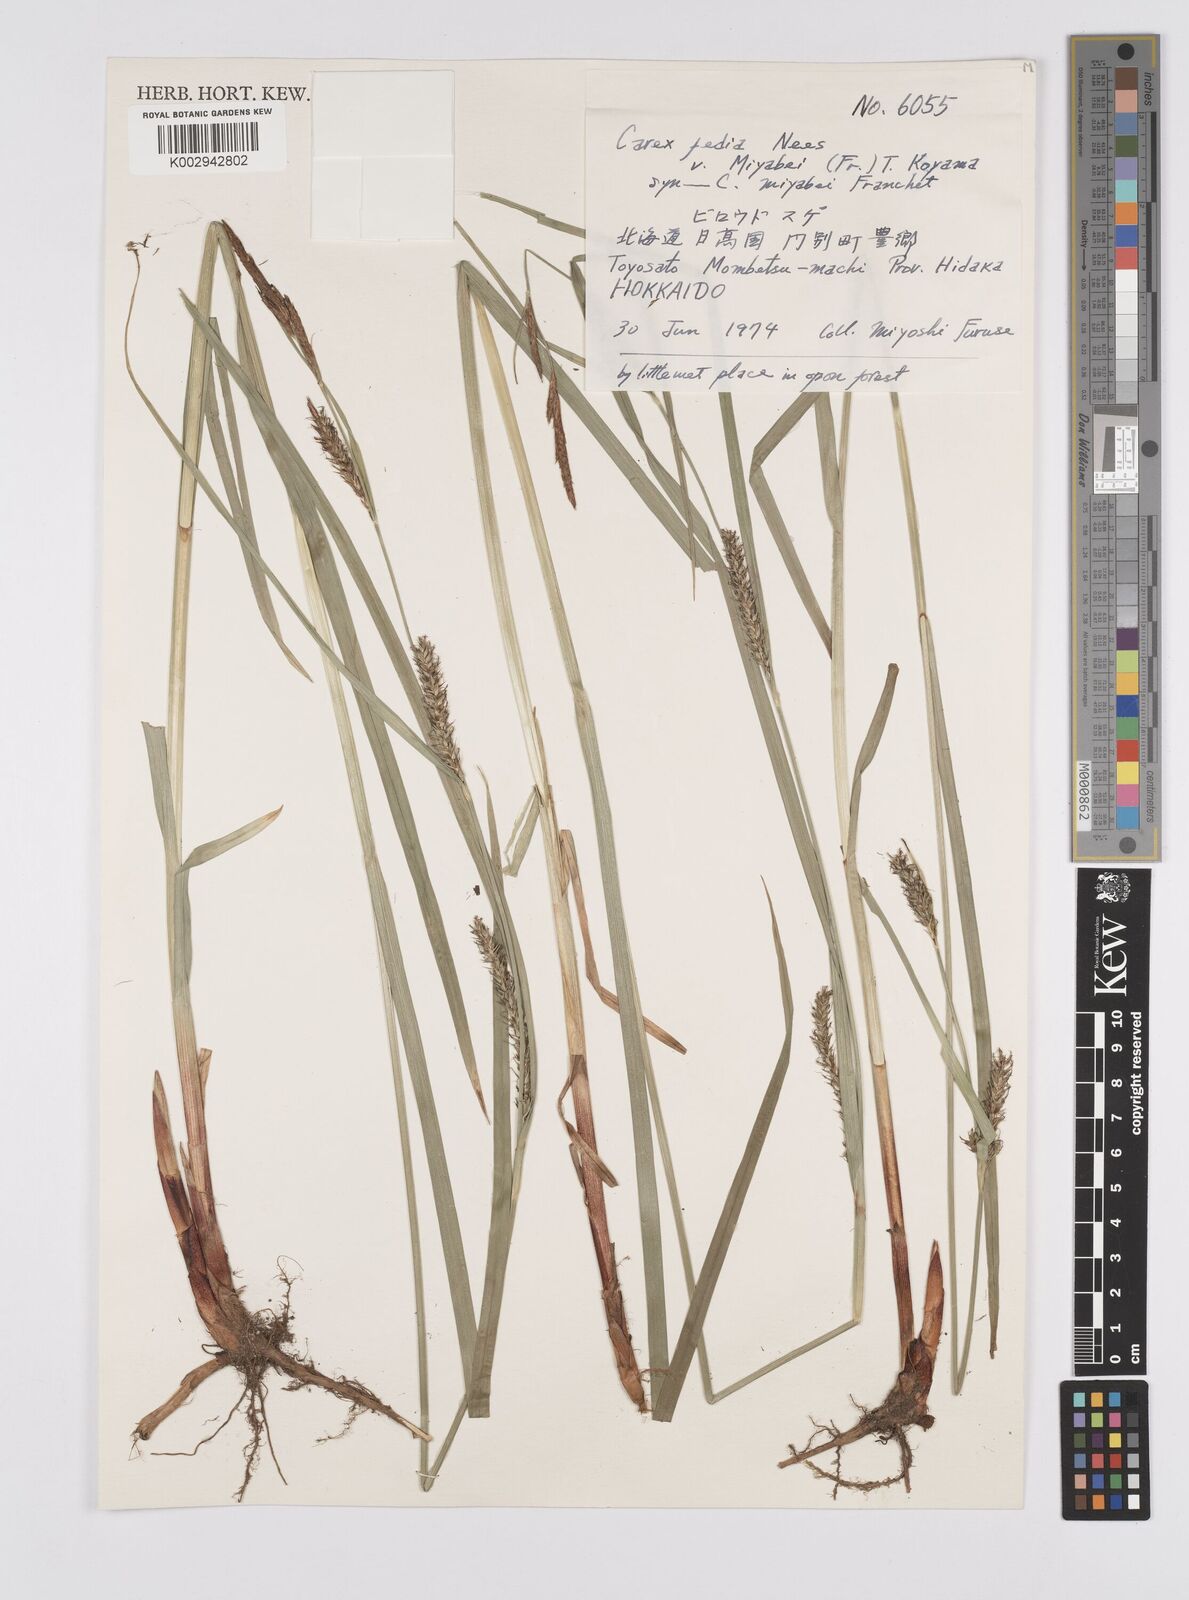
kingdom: Plantae
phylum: Tracheophyta
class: Liliopsida
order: Poales
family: Cyperaceae
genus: Carex
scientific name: Carex fedia
